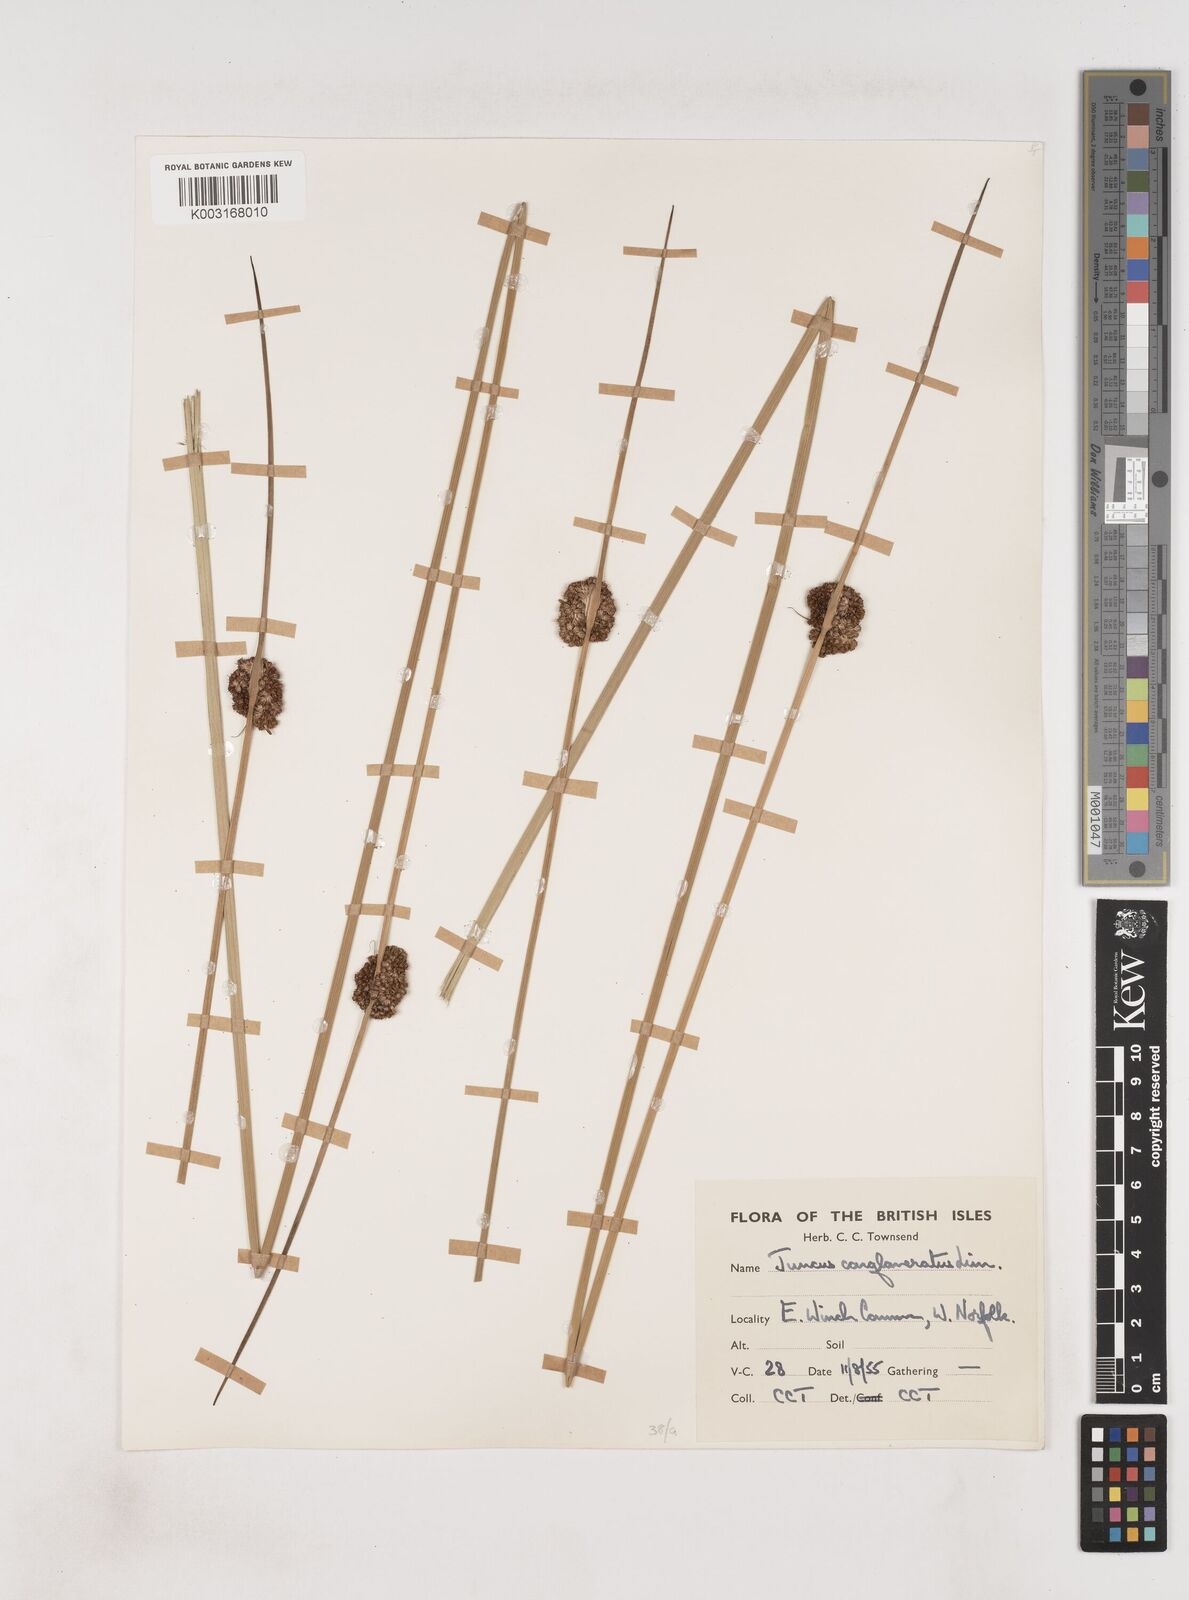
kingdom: Plantae
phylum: Tracheophyta
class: Liliopsida
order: Poales
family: Juncaceae
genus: Juncus
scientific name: Juncus conglomeratus
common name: Compact rush
